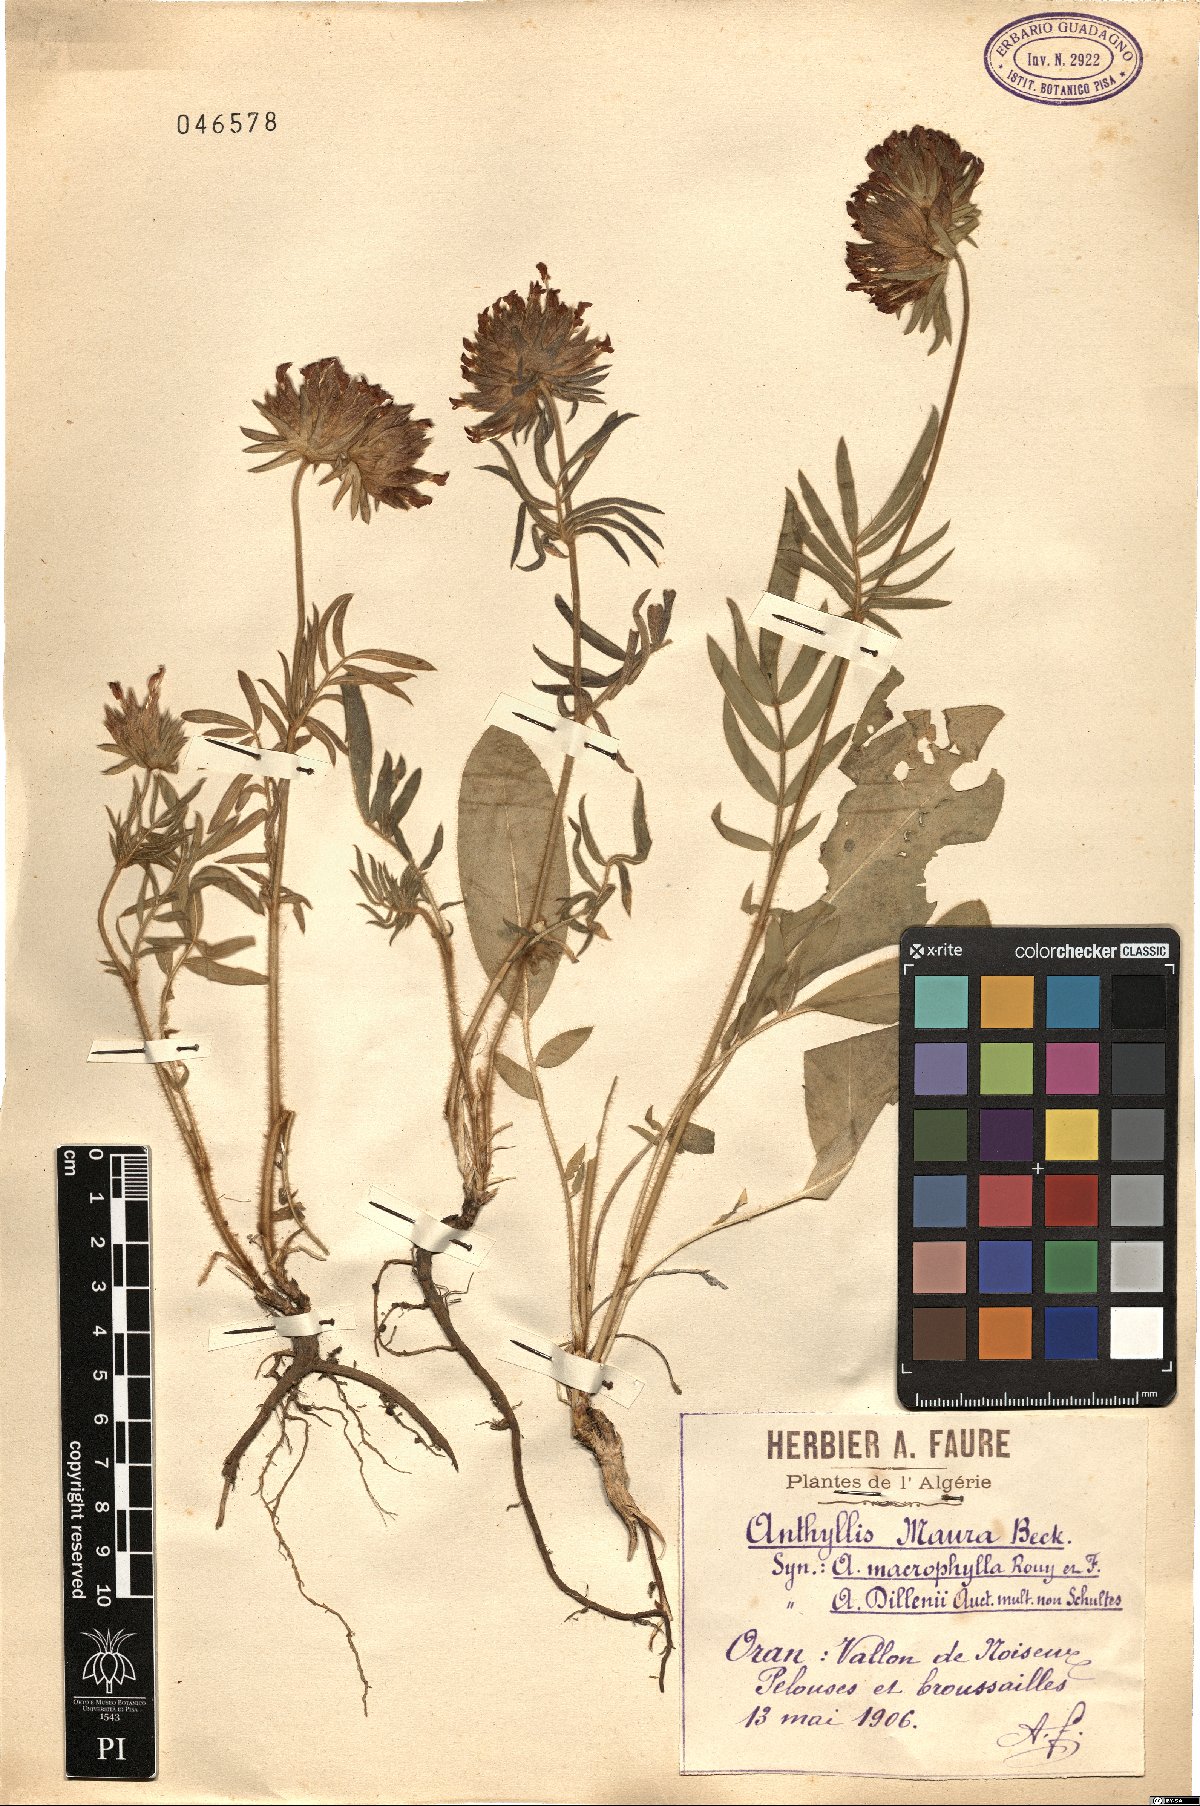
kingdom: Plantae
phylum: Tracheophyta
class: Magnoliopsida
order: Fabales
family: Fabaceae
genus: Anthyllis
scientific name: Anthyllis vulneraria
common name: Kidney vetch
